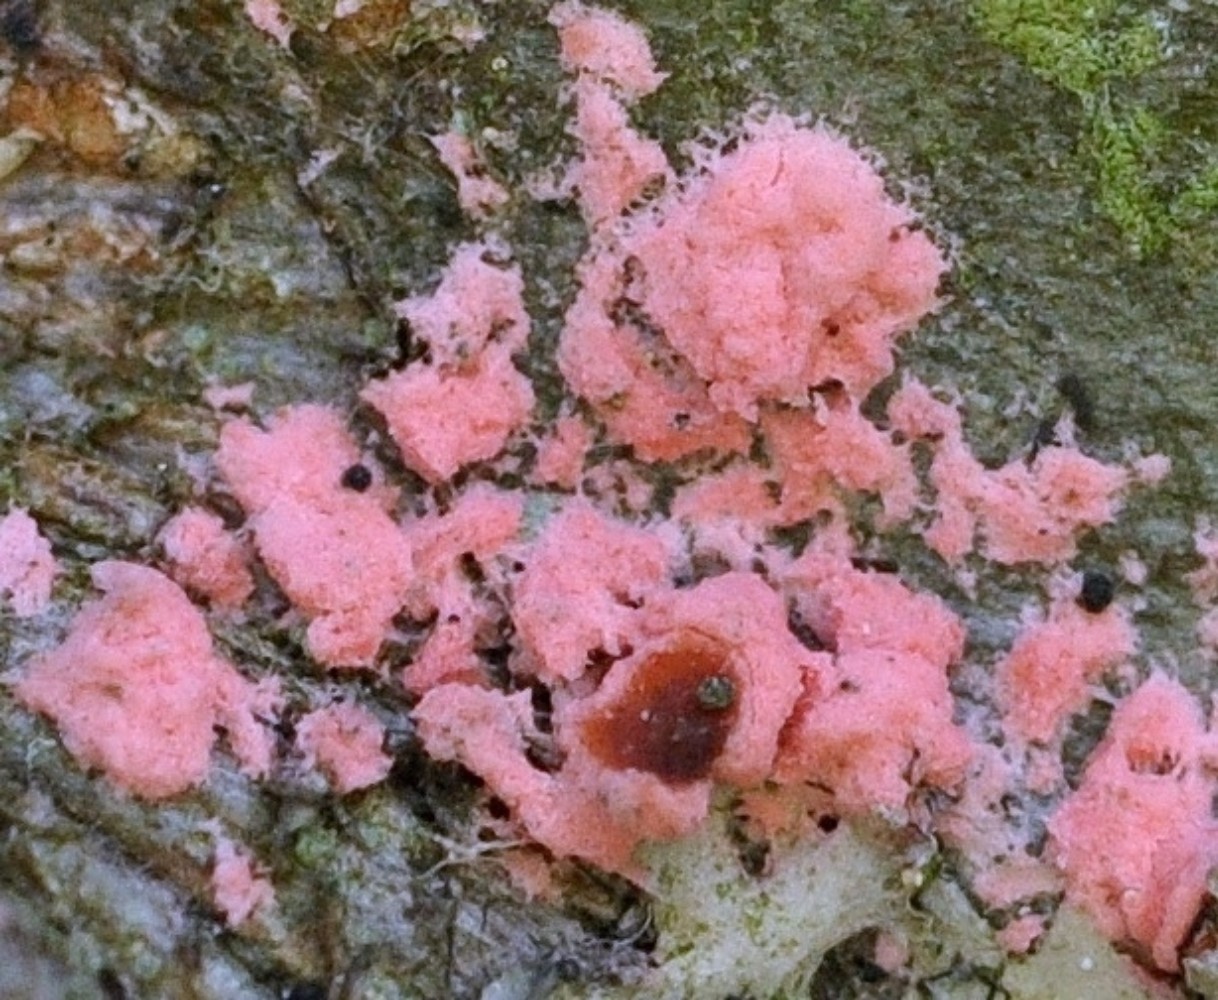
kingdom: Fungi
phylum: Ascomycota
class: Sordariomycetes
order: Hypocreales
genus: Illosporiopsis
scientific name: Illosporiopsis christiansenii
